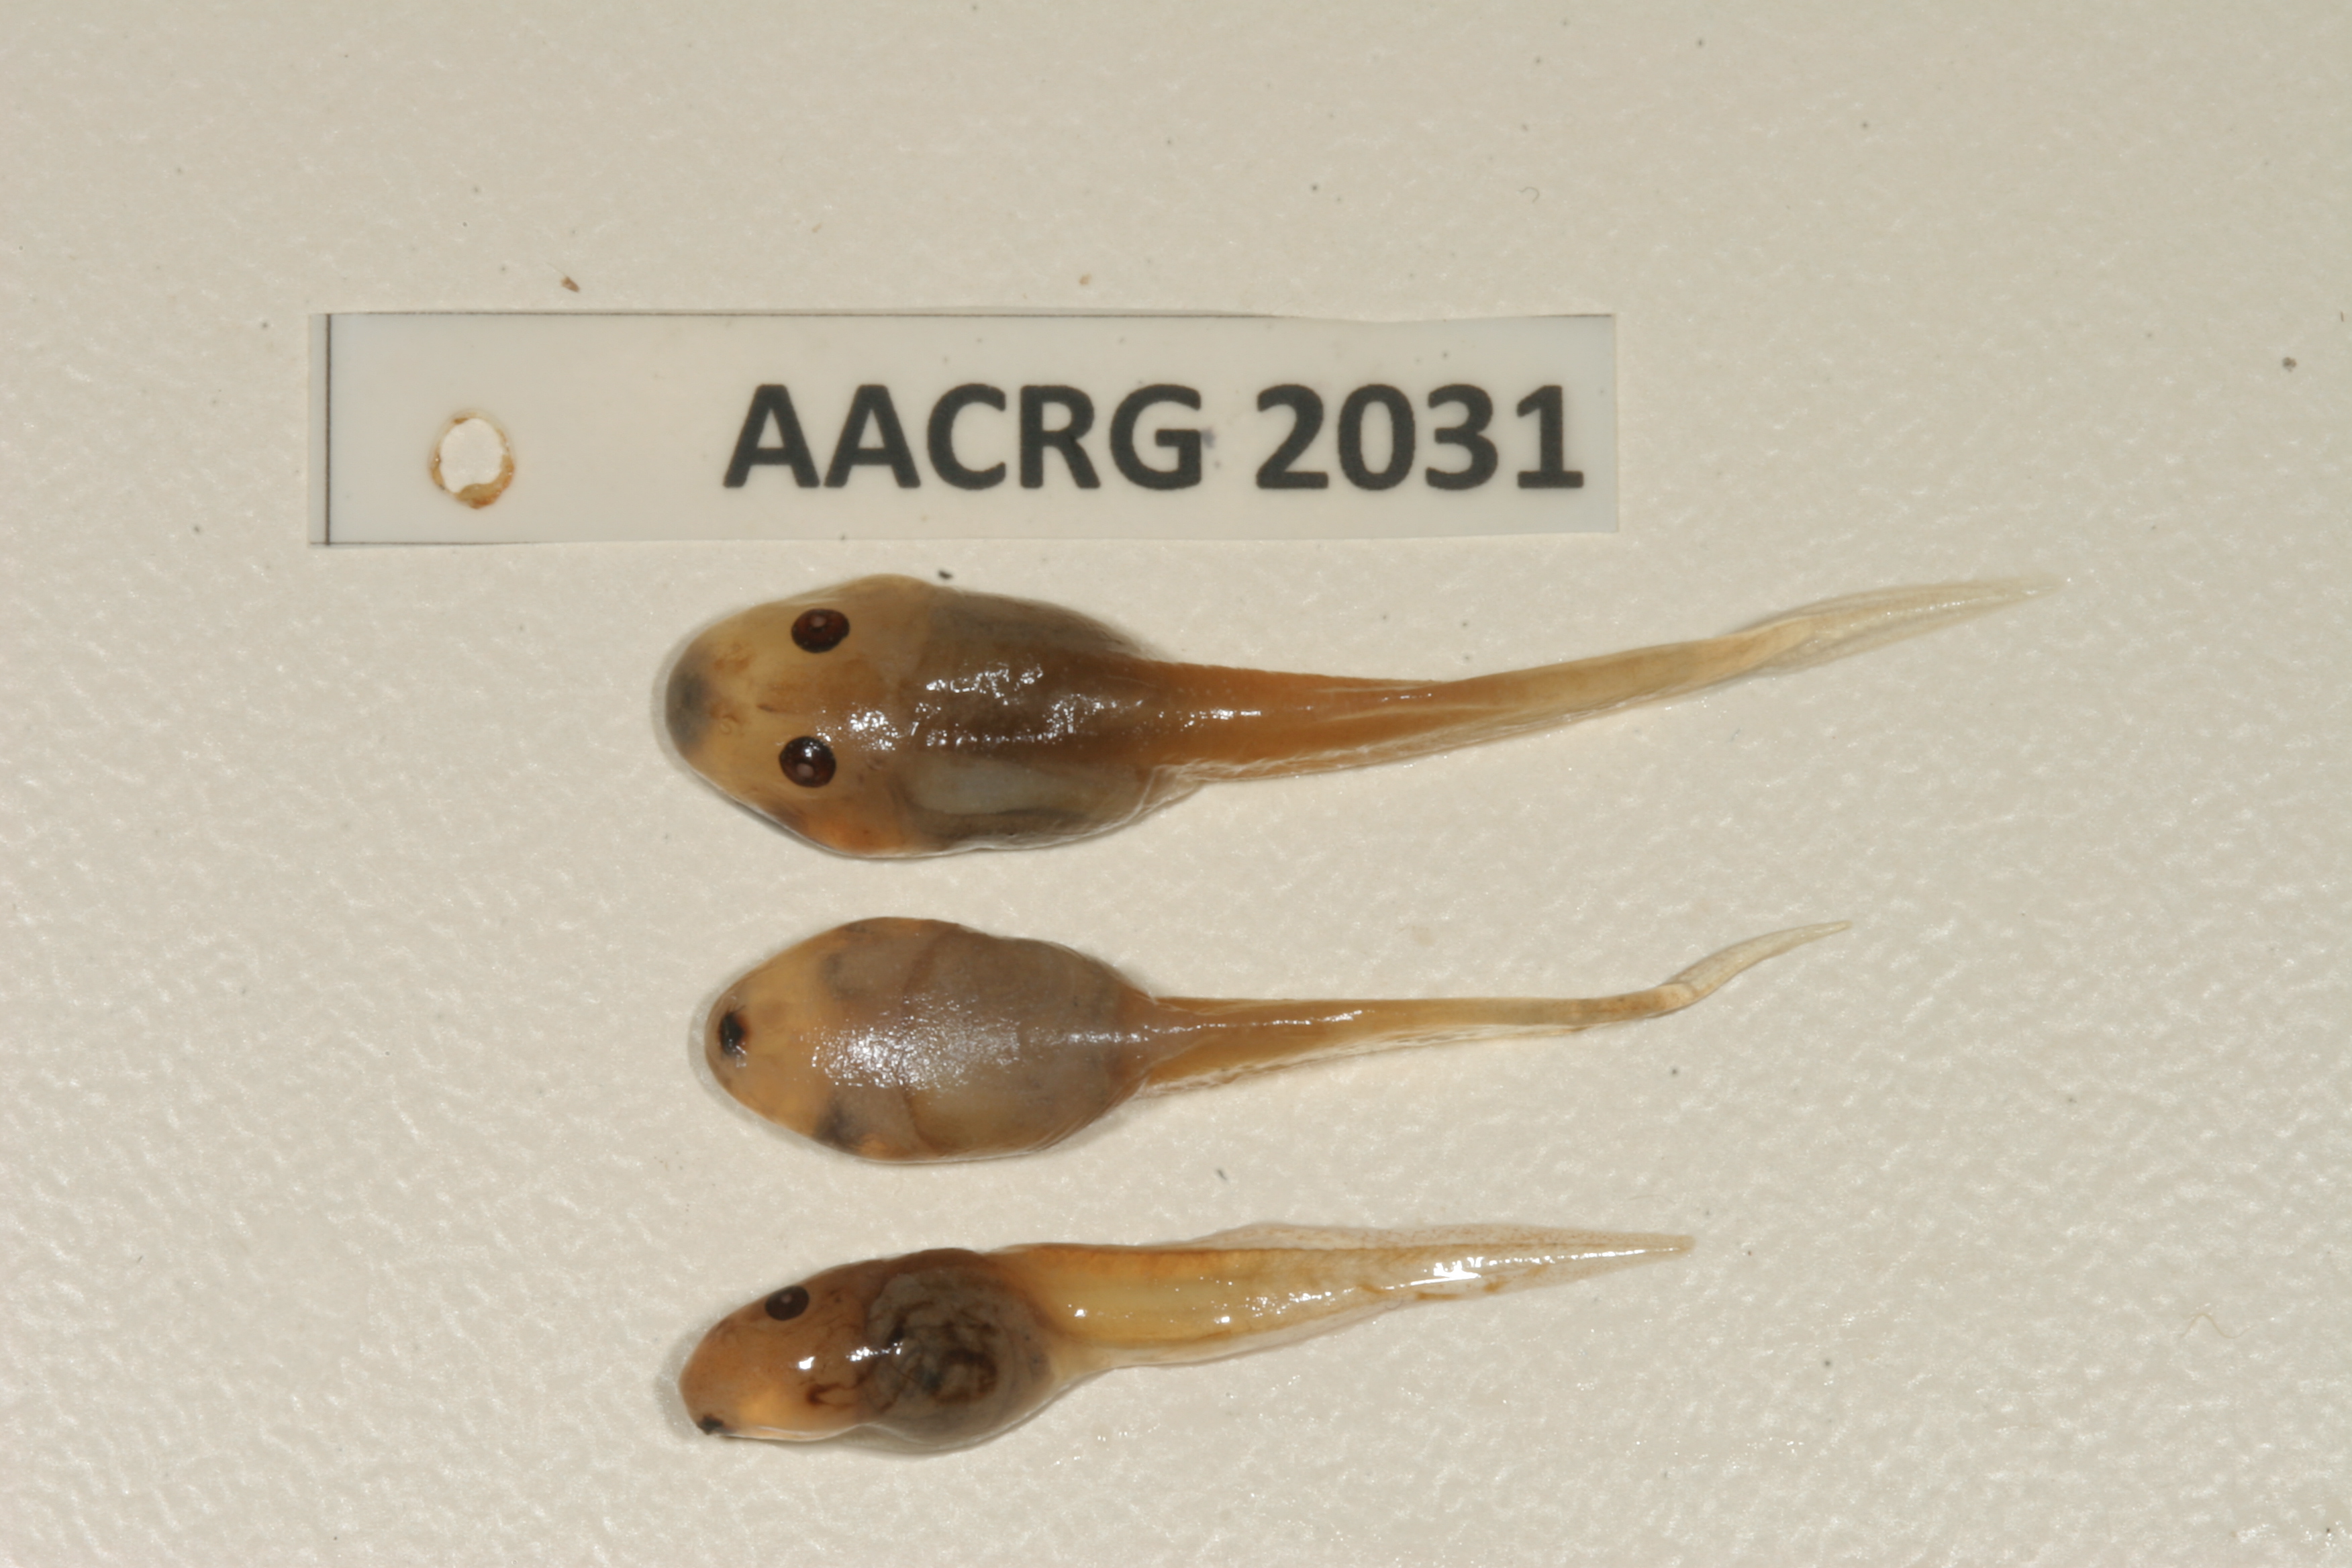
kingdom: Animalia
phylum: Chordata
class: Amphibia
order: Anura
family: Pyxicephalidae
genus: Strongylopus
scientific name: Strongylopus grayii
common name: Gray's stream frog
